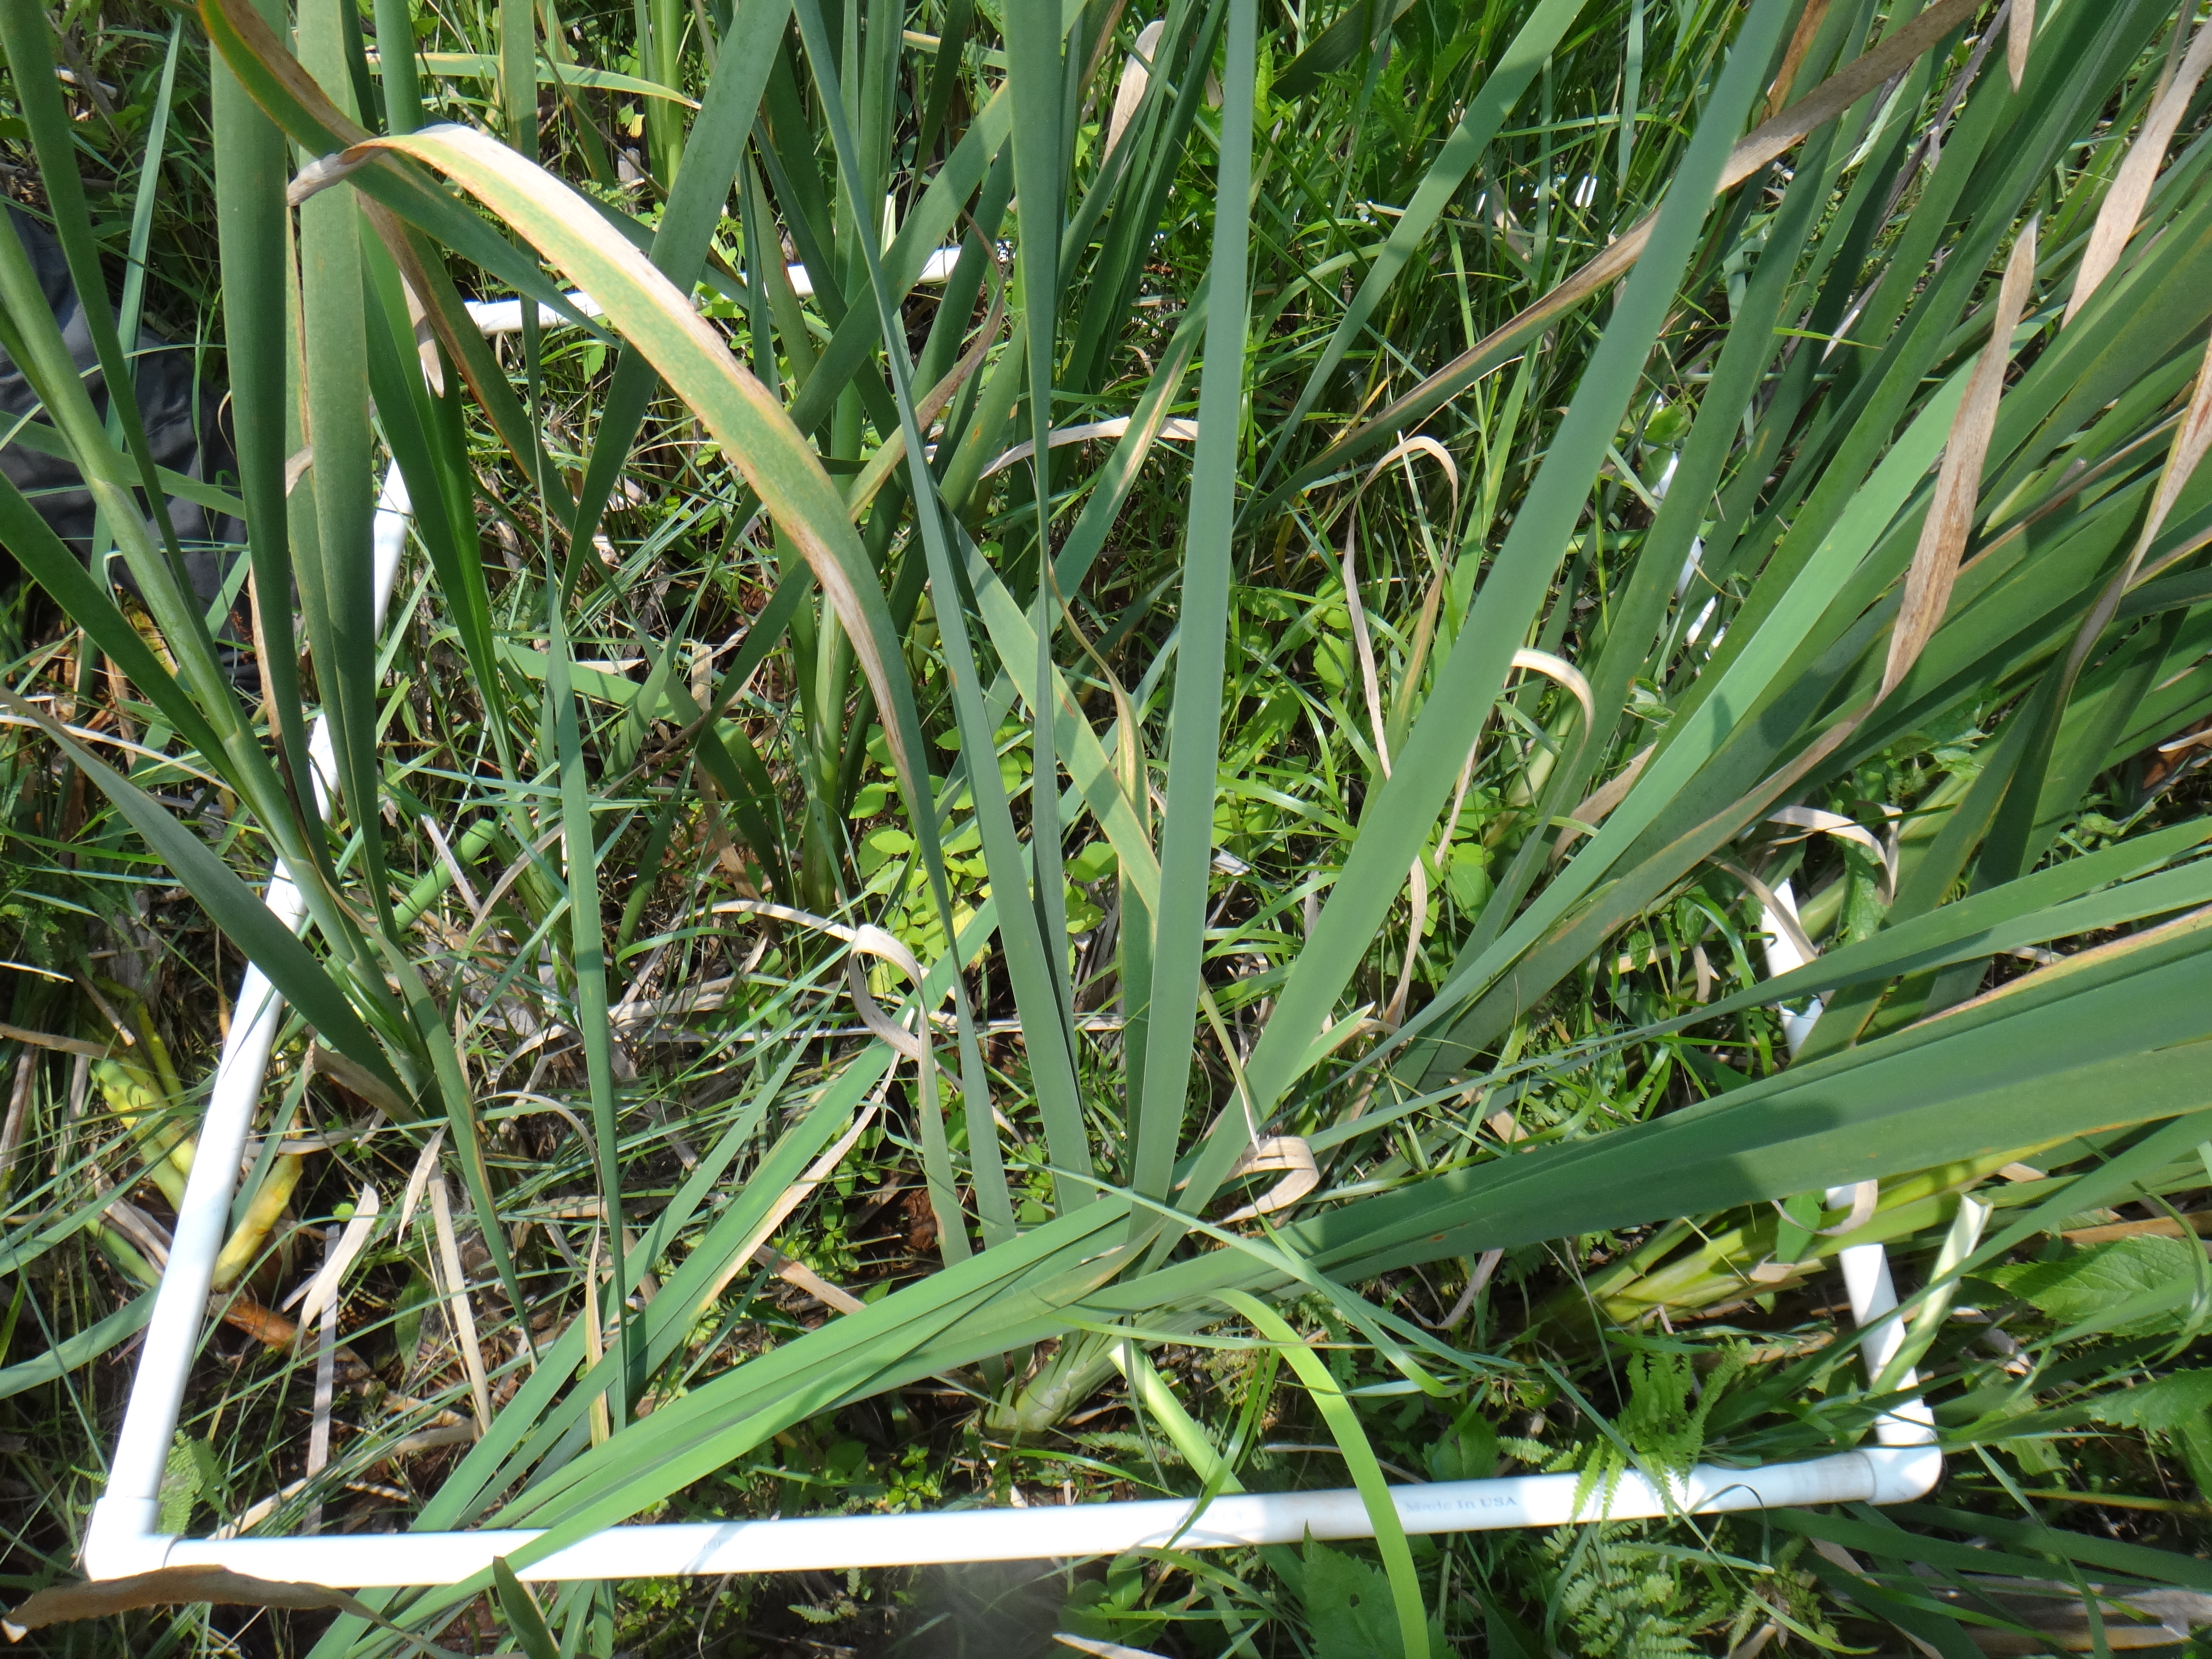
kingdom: Plantae
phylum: Tracheophyta
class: Polypodiopsida
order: Polypodiales
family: Thelypteridaceae
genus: Thelypteris
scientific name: Thelypteris palustris
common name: Marsh fern
